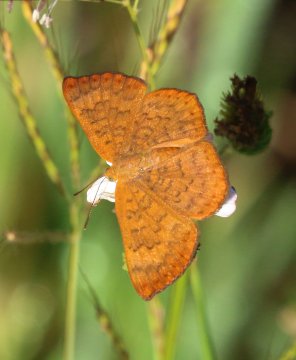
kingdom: Animalia
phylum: Arthropoda
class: Insecta
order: Lepidoptera
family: Lycaenidae
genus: Emesis
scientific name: Emesis vulpina
